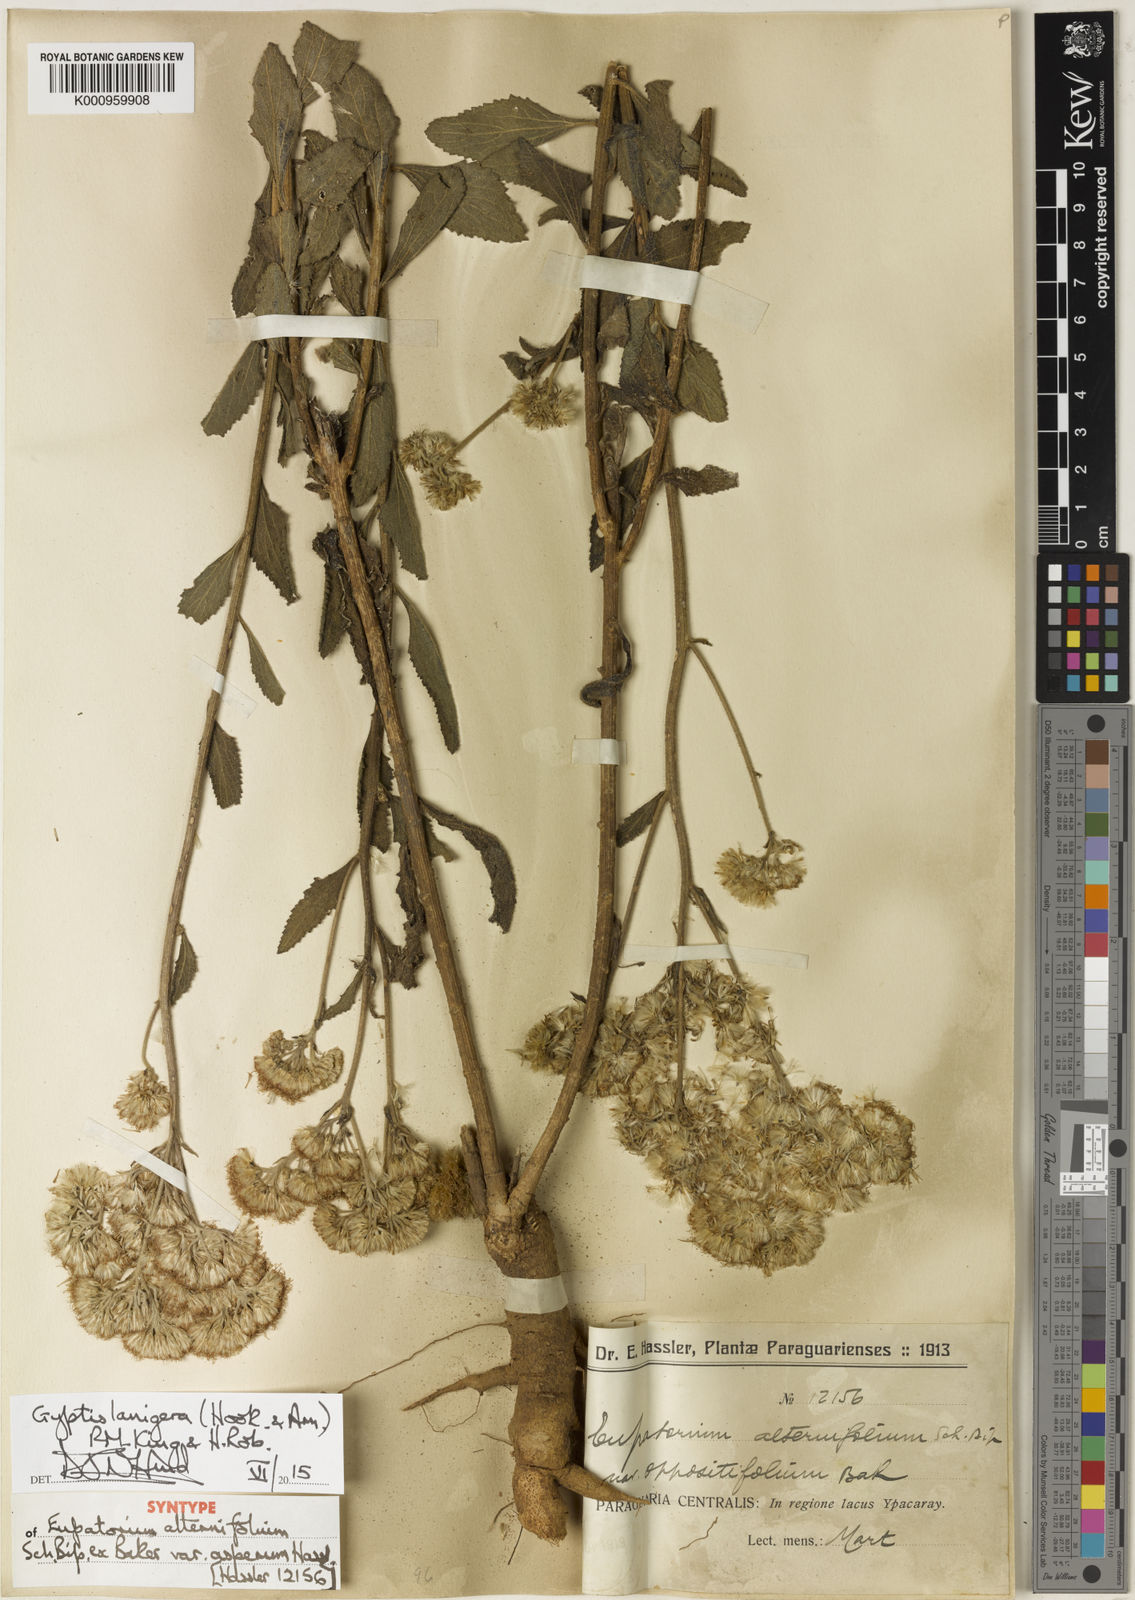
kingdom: Plantae
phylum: Tracheophyta
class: Magnoliopsida
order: Asterales
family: Asteraceae
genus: Gyptis
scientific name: Gyptis lanigera
